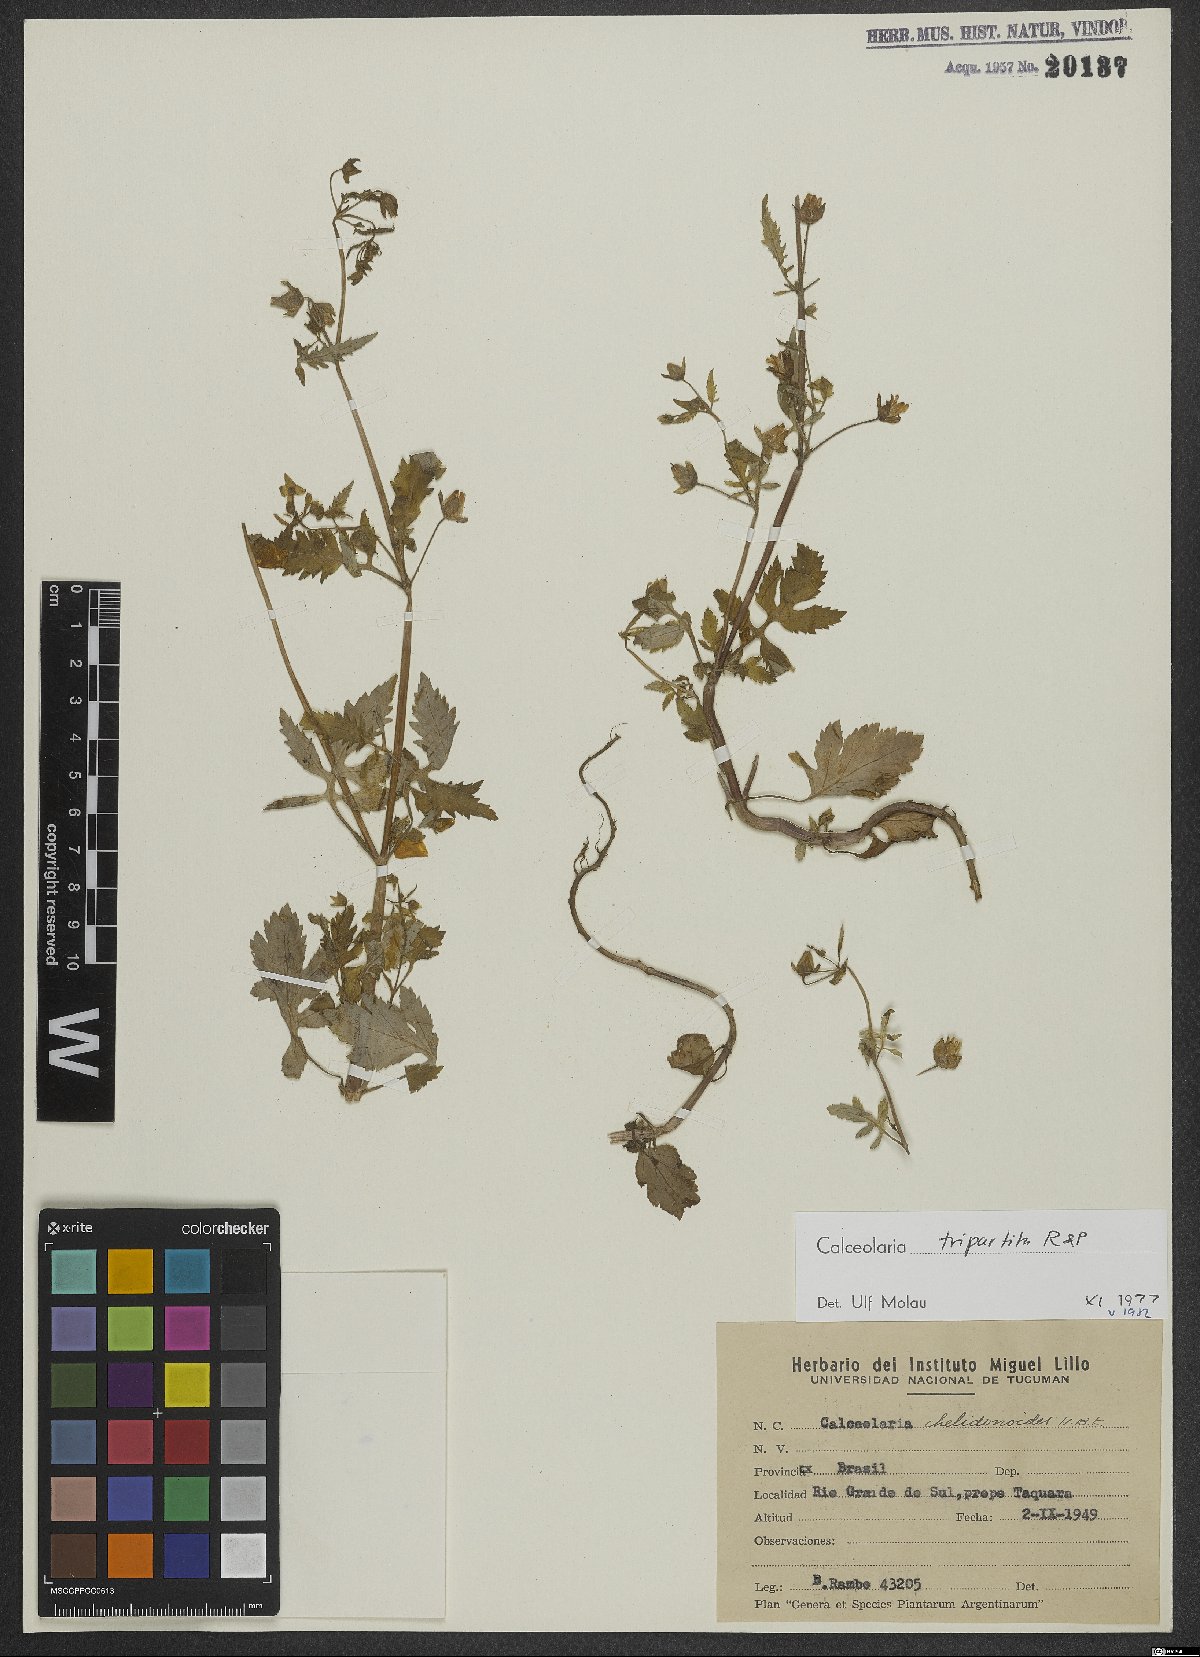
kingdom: Plantae
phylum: Tracheophyta
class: Magnoliopsida
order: Lamiales
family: Calceolariaceae
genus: Calceolaria
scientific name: Calceolaria tripartita
